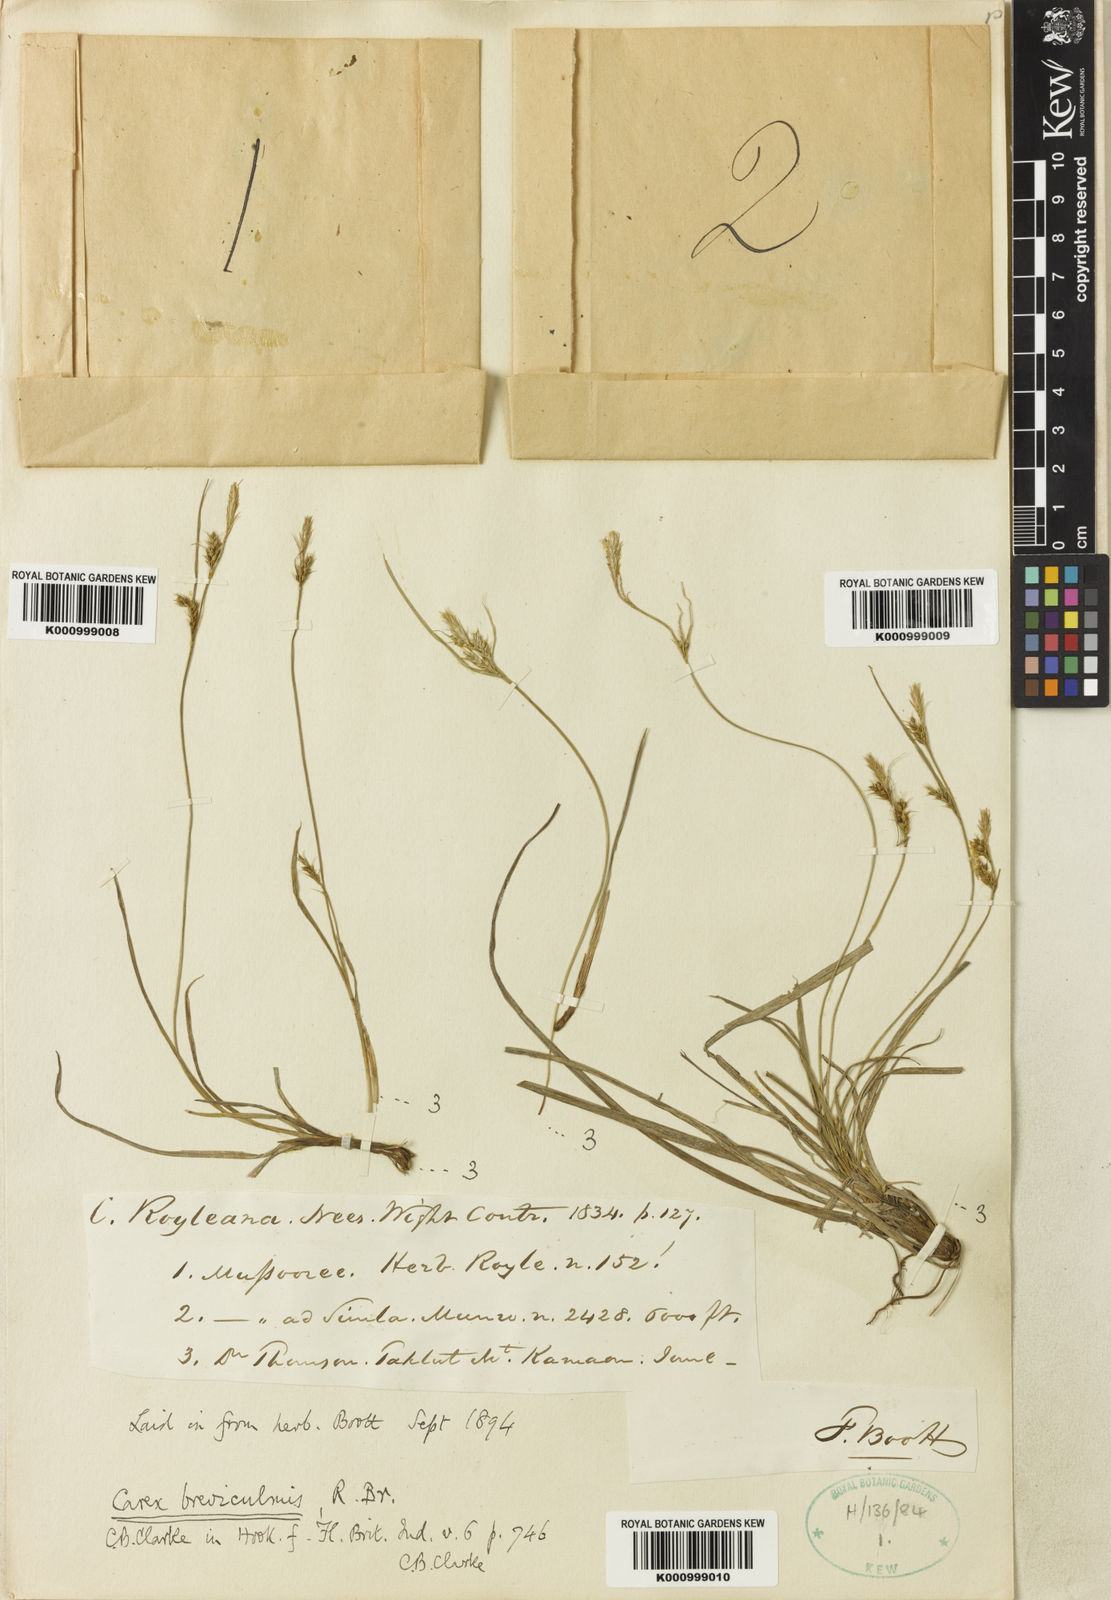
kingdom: Plantae
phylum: Tracheophyta
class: Liliopsida
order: Poales
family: Cyperaceae
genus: Carex
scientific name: Carex breviculmis
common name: Asian shortstem sedge
